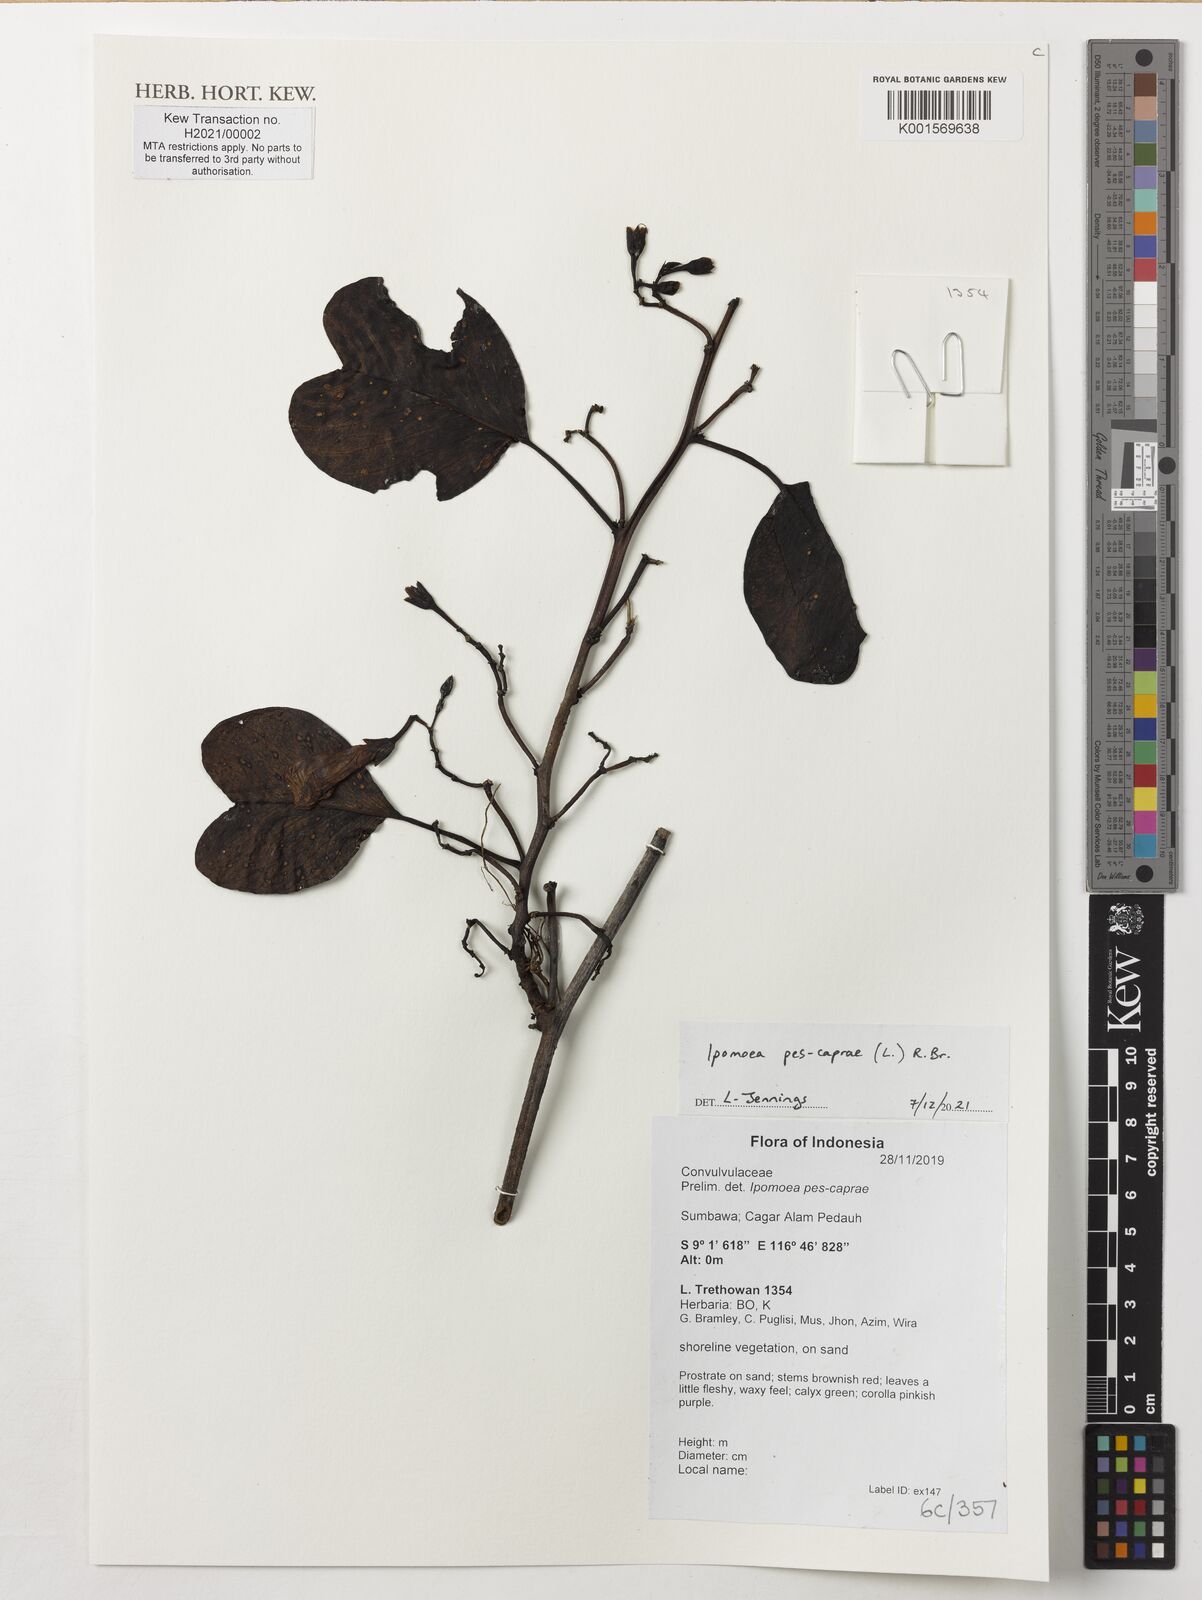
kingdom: Plantae
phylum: Tracheophyta
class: Magnoliopsida
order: Solanales
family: Convolvulaceae
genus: Ipomoea
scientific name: Ipomoea pes-caprae
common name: Beach morning glory
